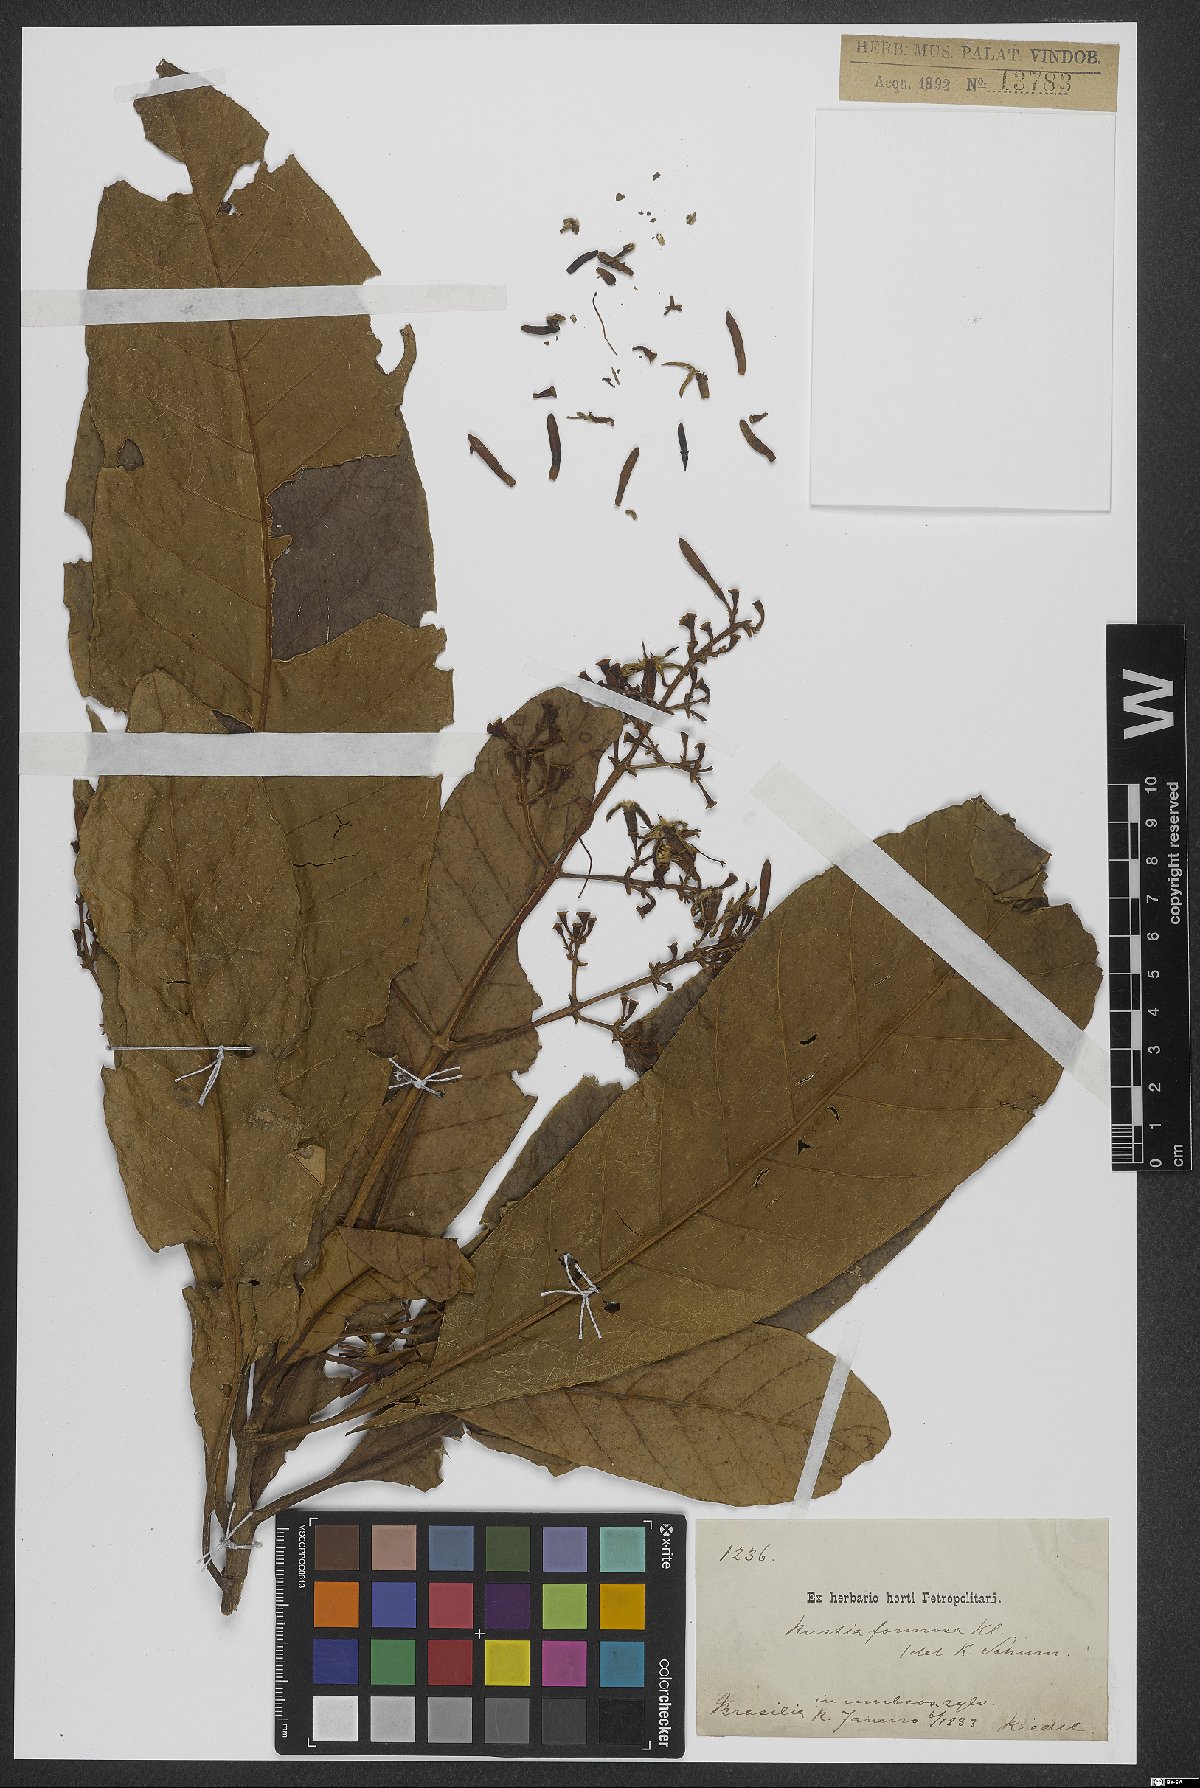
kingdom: Plantae
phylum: Tracheophyta
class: Magnoliopsida
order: Gentianales
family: Rubiaceae
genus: Rustia
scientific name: Rustia formosa
